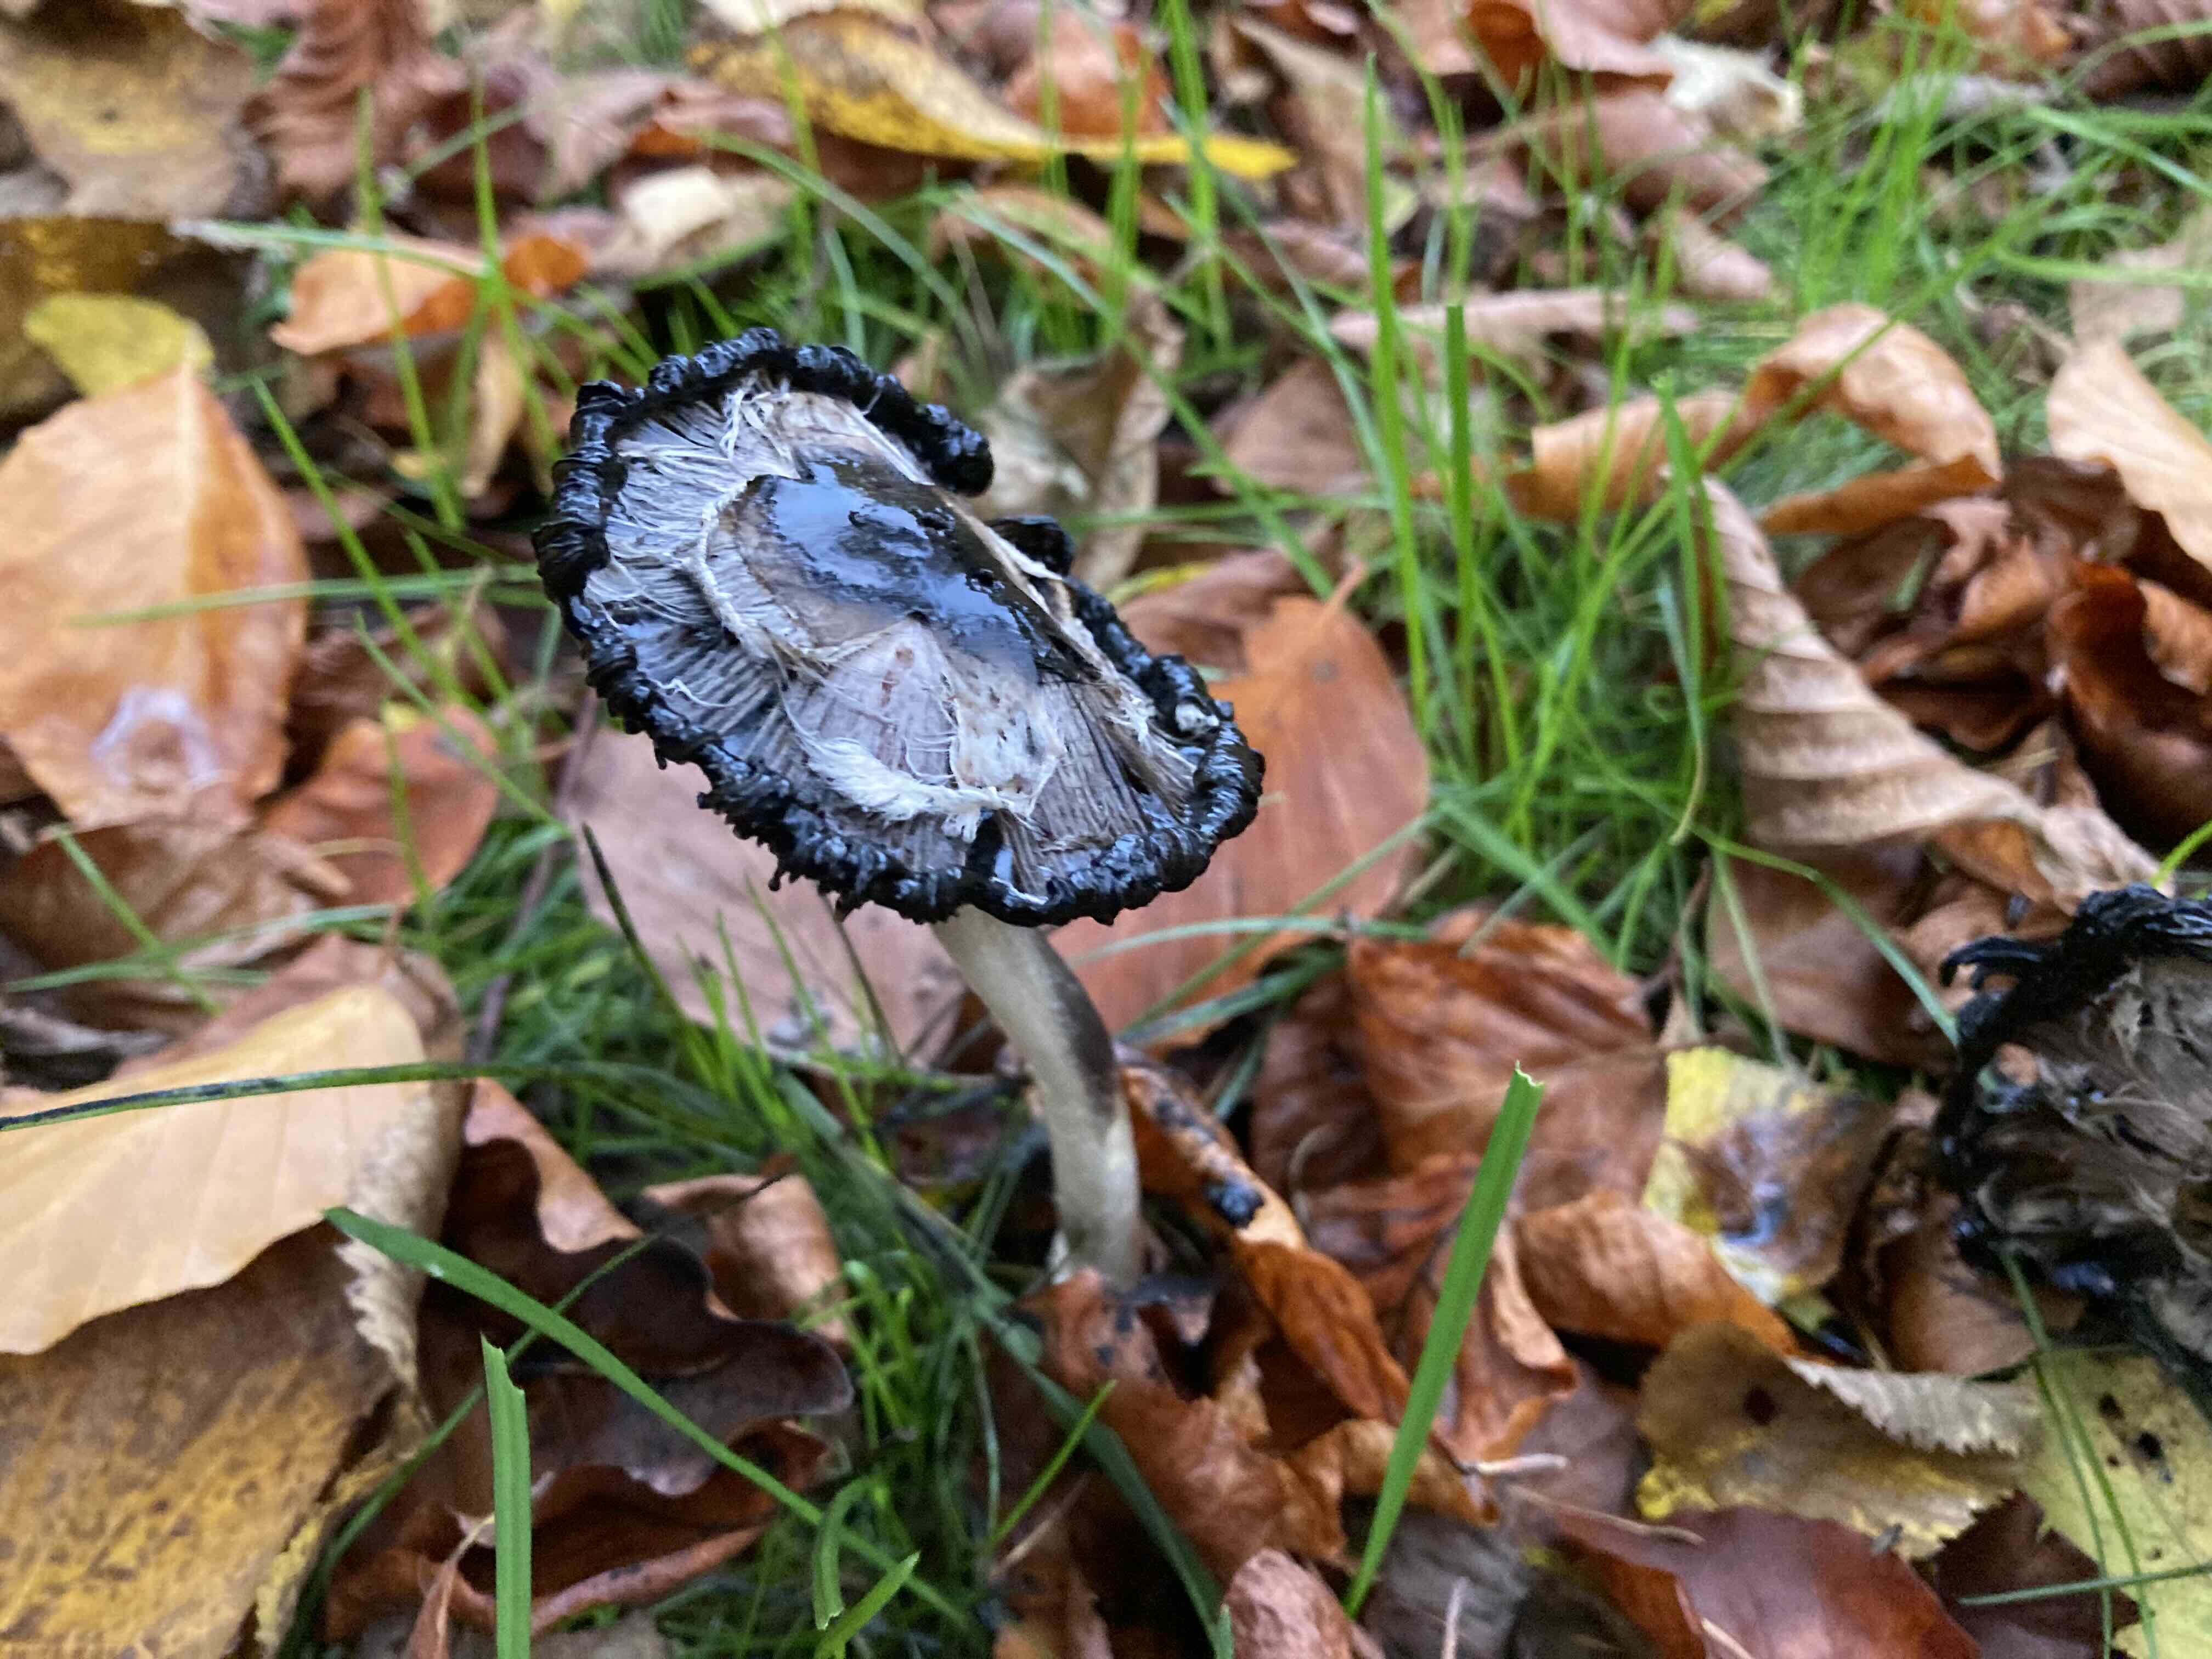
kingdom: Fungi
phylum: Basidiomycota
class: Agaricomycetes
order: Agaricales
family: Agaricaceae
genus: Coprinus
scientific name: Coprinus comatus
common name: stor parykhat
